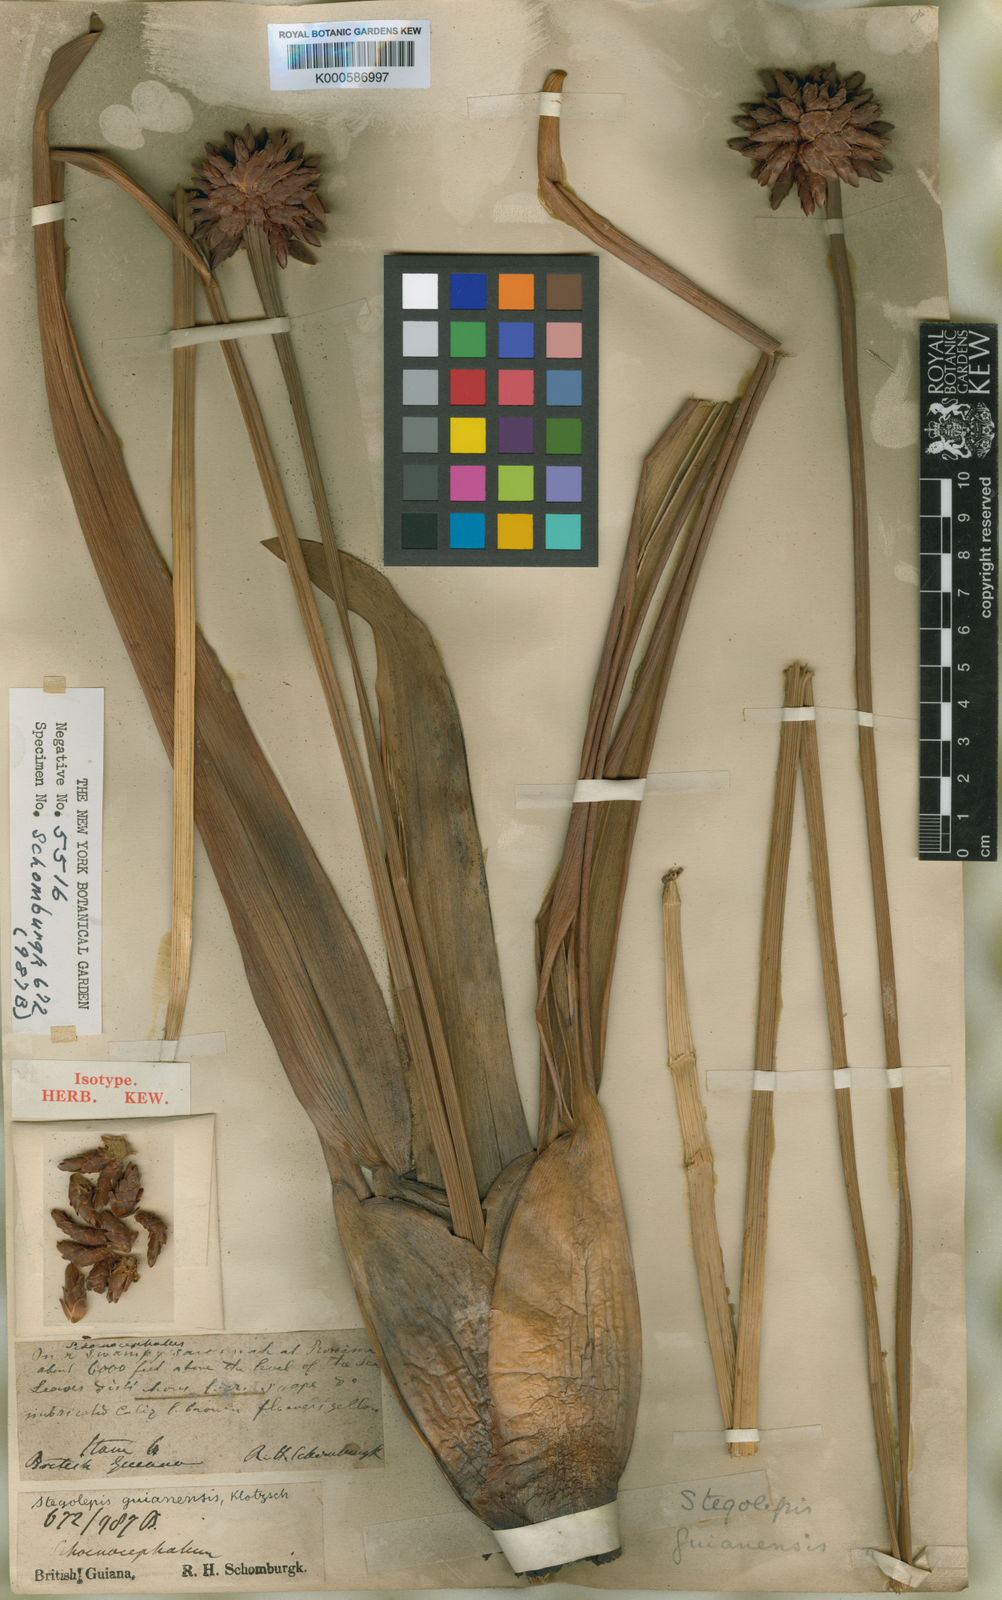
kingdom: Plantae
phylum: Tracheophyta
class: Liliopsida
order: Poales
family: Rapateaceae
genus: Stegolepis
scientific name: Stegolepis
